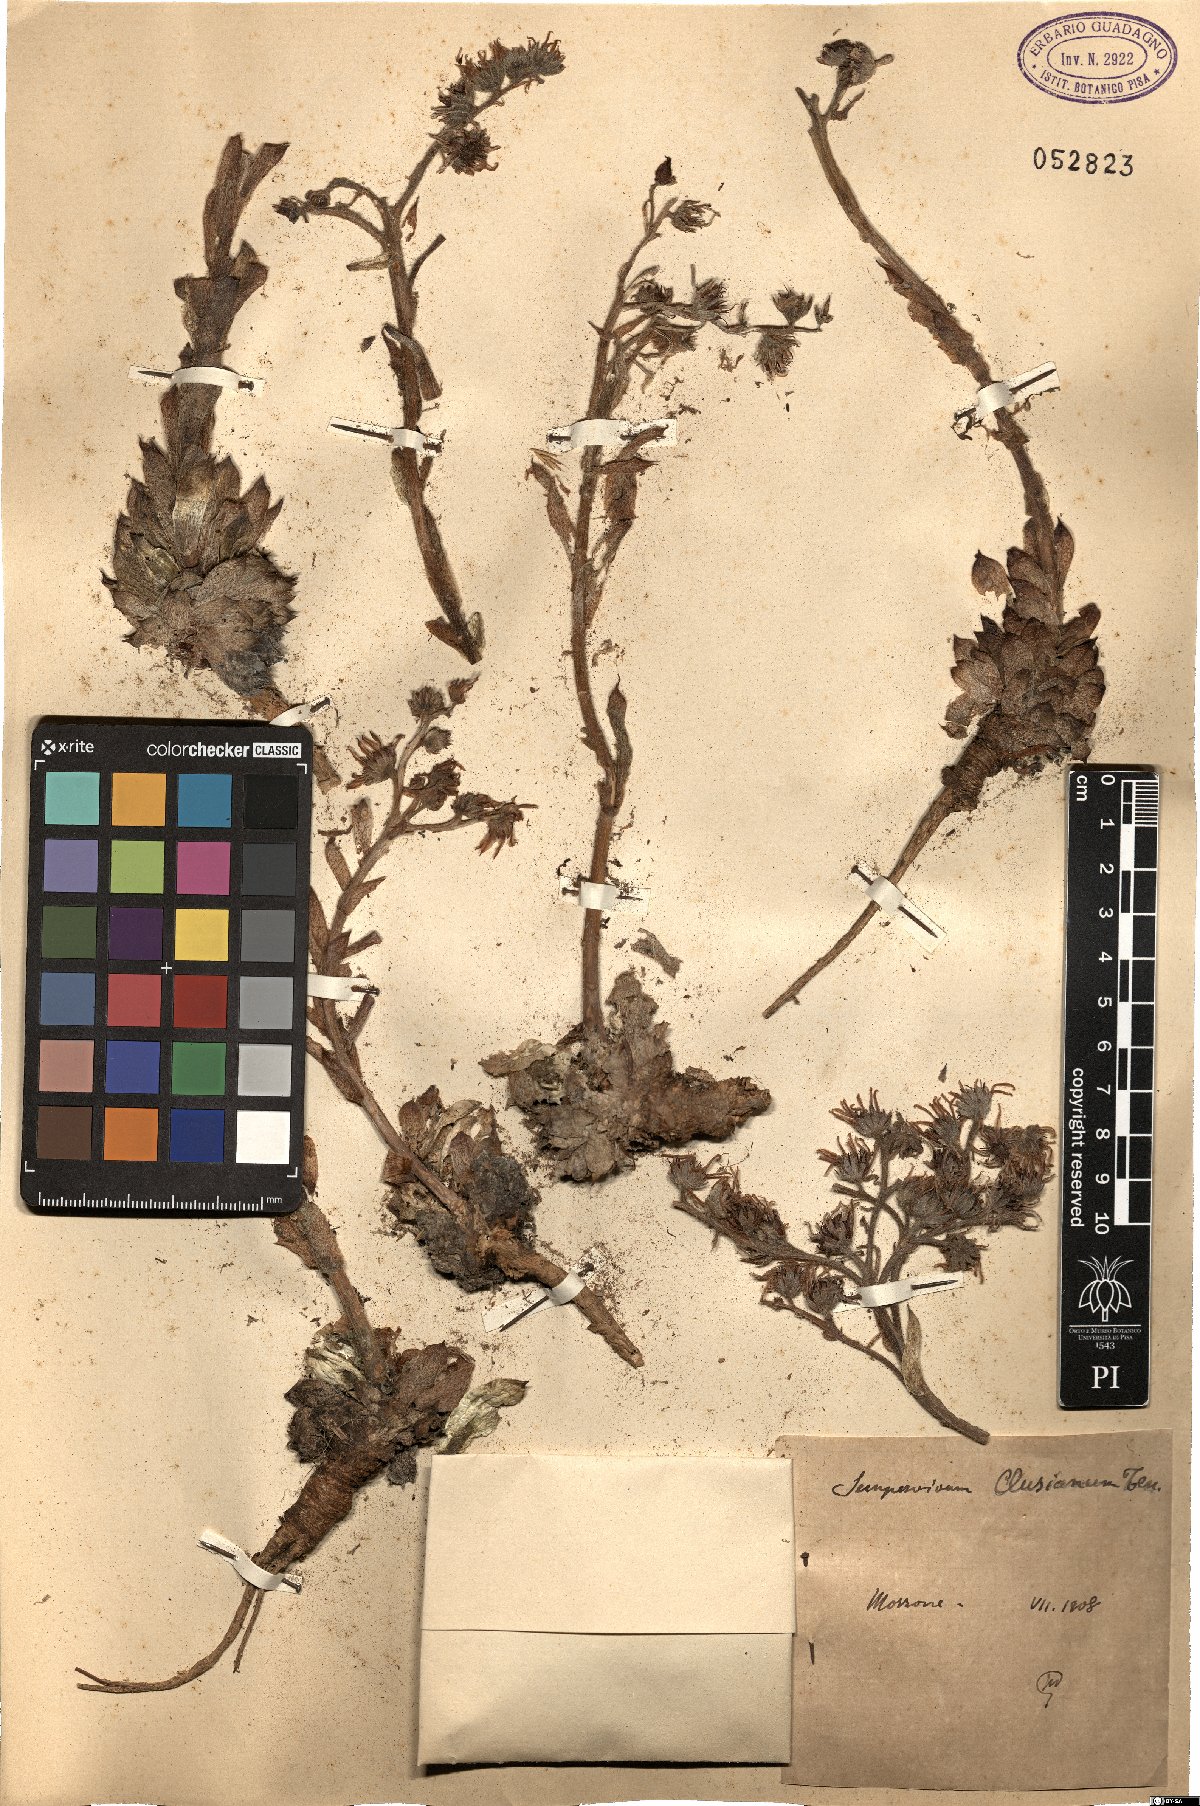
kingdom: Plantae
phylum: Tracheophyta
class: Magnoliopsida
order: Saxifragales
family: Crassulaceae
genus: Sempervivum
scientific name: Sempervivum tectorum
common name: House-leek
